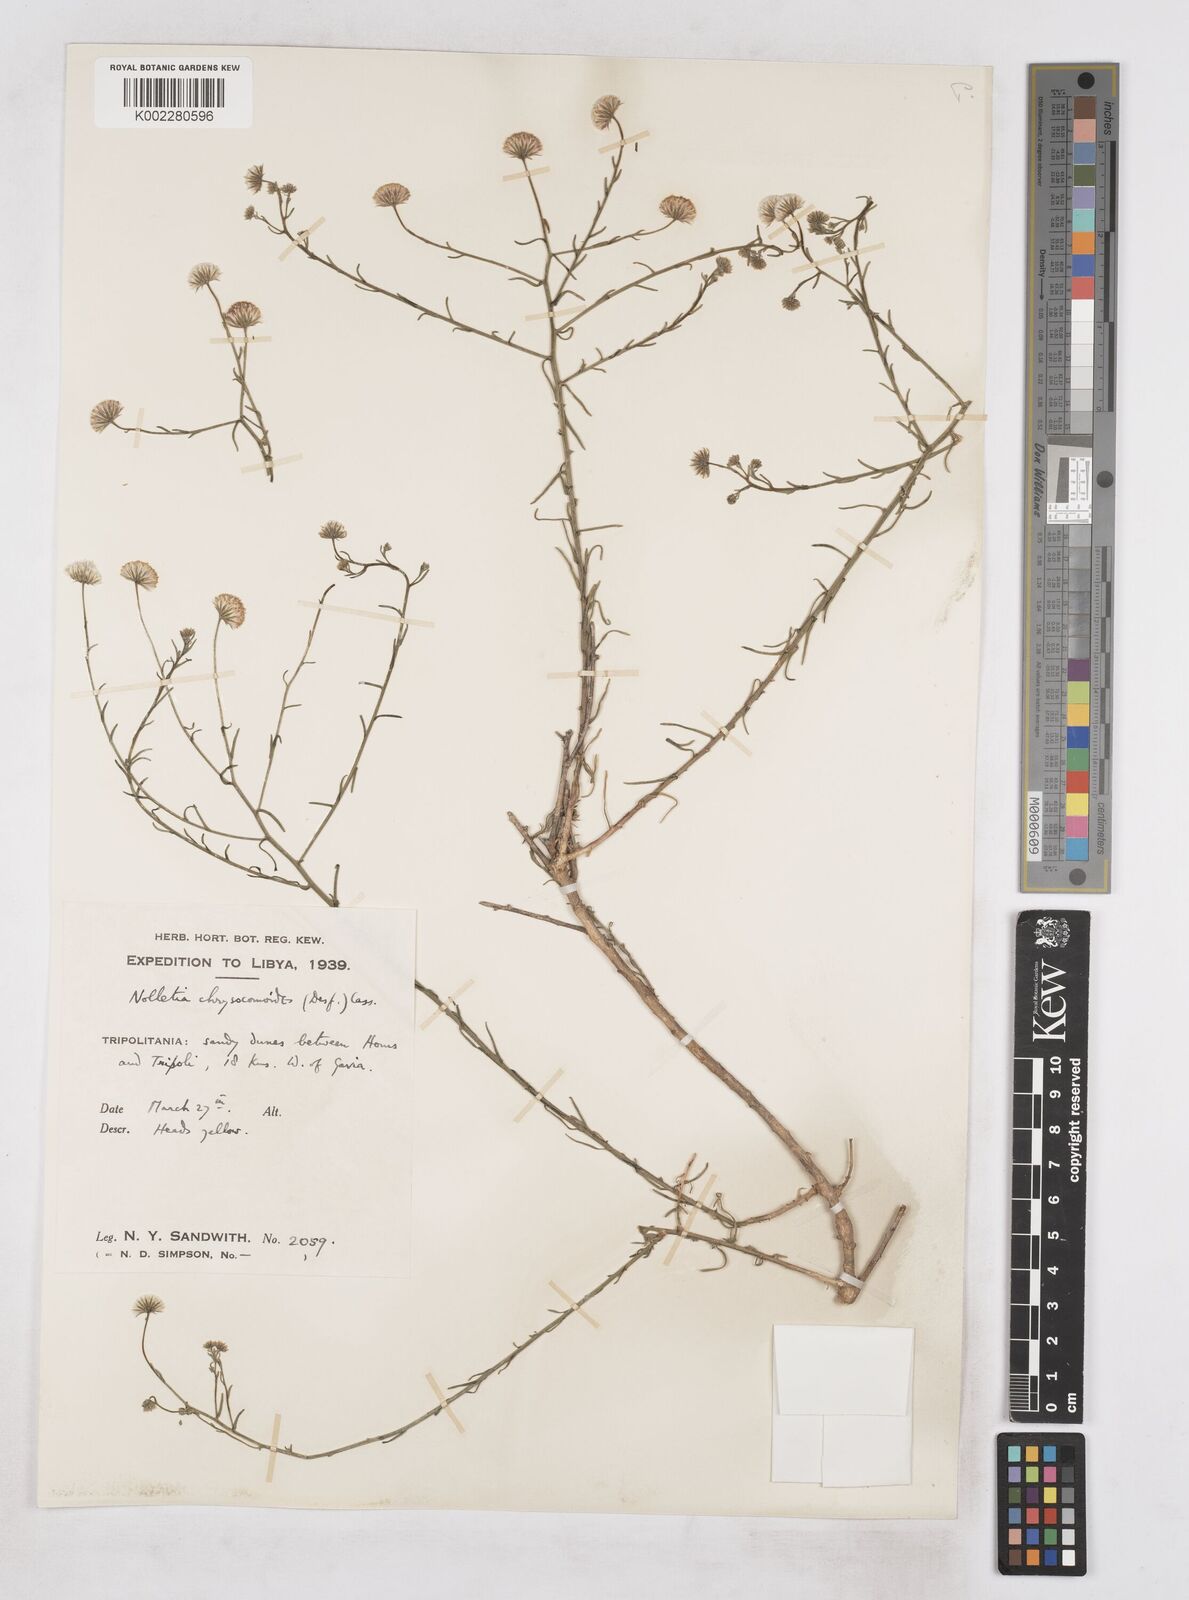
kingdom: Plantae
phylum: Tracheophyta
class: Magnoliopsida
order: Asterales
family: Asteraceae
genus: Nolletia
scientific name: Nolletia chrysocomoides
